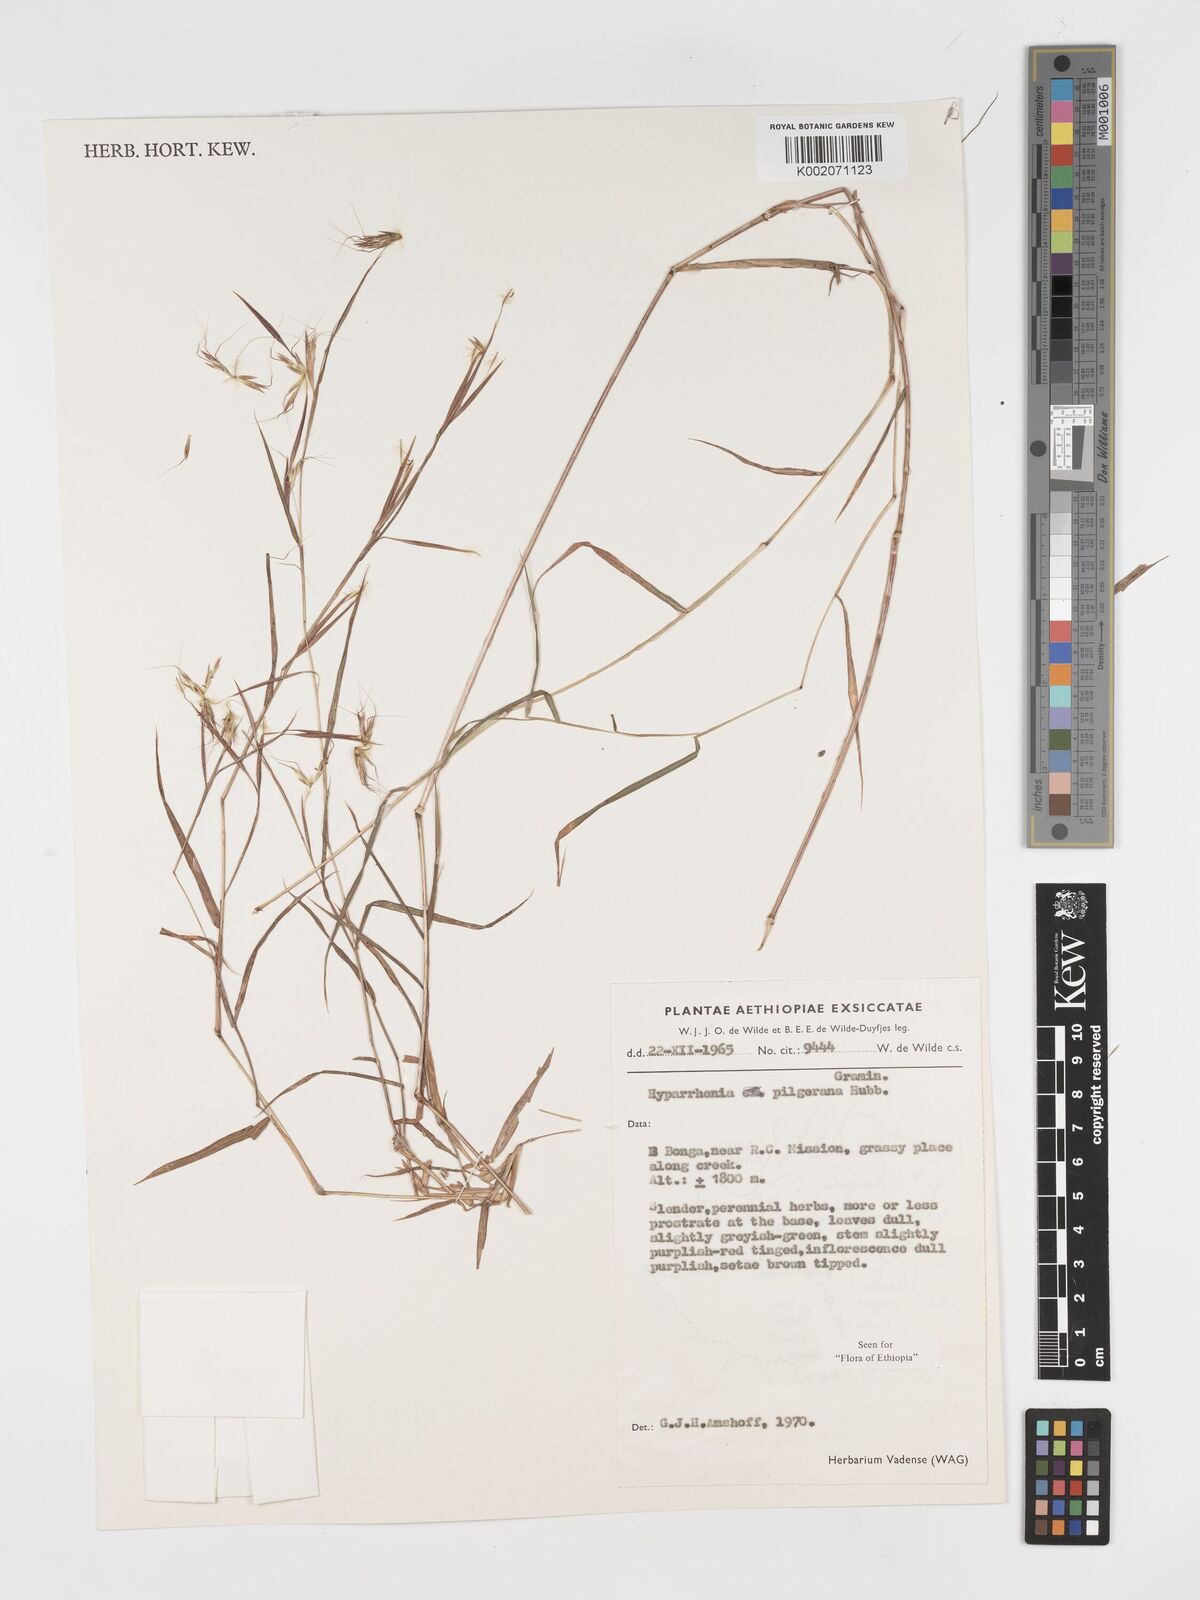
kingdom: Plantae
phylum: Tracheophyta
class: Liliopsida
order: Poales
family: Poaceae
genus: Hyparrhenia
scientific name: Hyparrhenia pilgeriana
